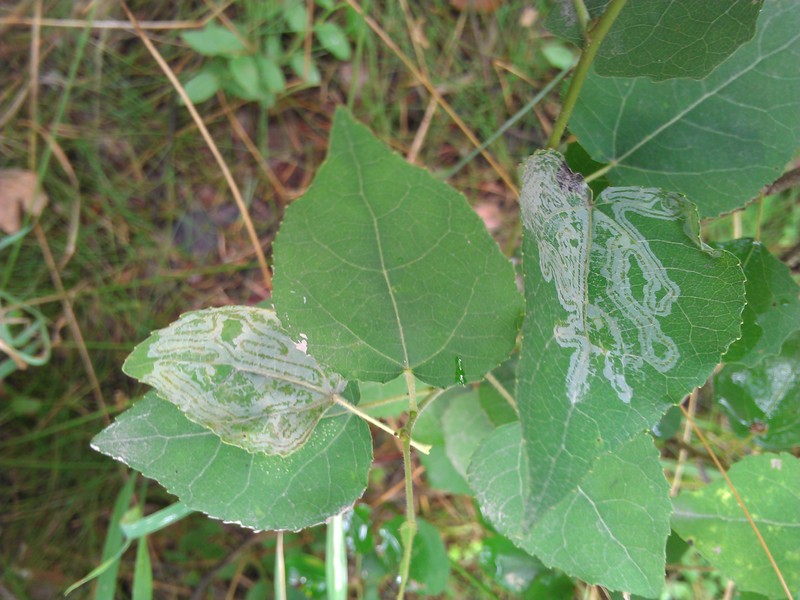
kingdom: Animalia
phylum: Arthropoda
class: Insecta
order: Lepidoptera
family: Gracillariidae
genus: Phyllocnistis
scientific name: Phyllocnistis
